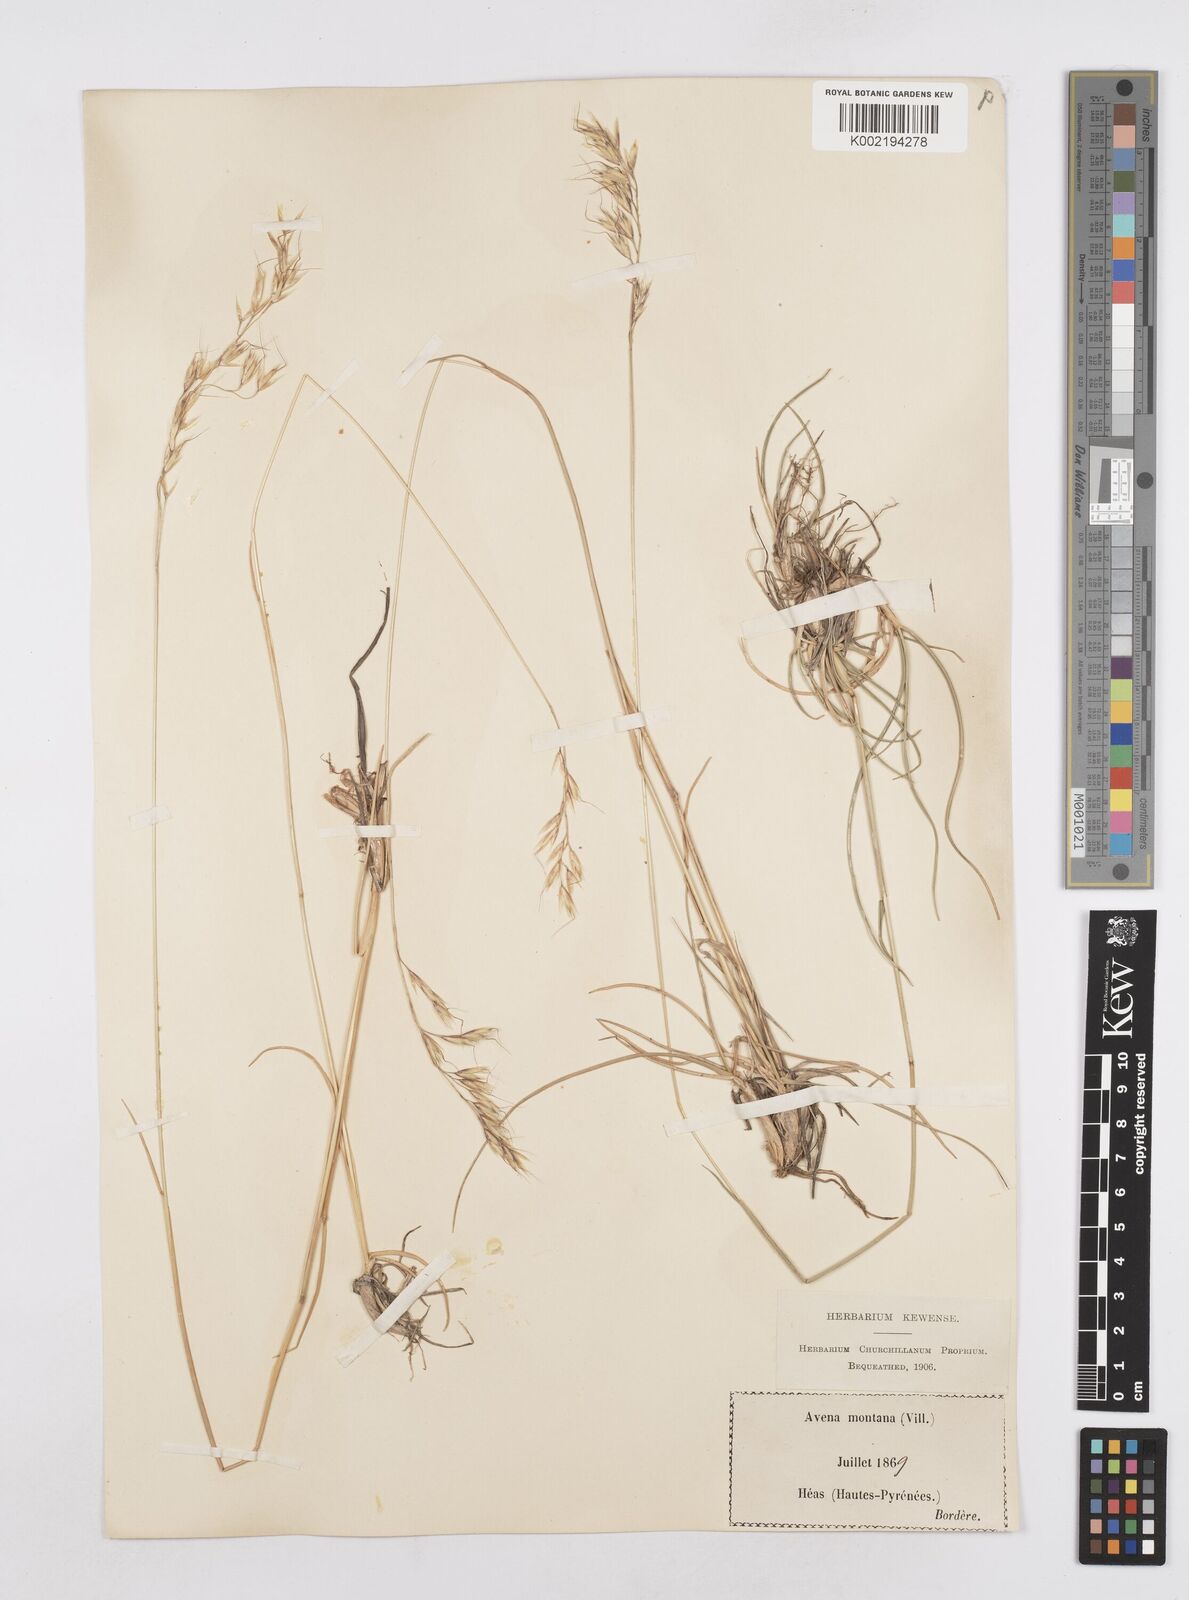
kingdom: Plantae
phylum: Tracheophyta
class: Liliopsida
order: Poales
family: Poaceae
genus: Helictotrichon
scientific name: Helictotrichon sedenense
